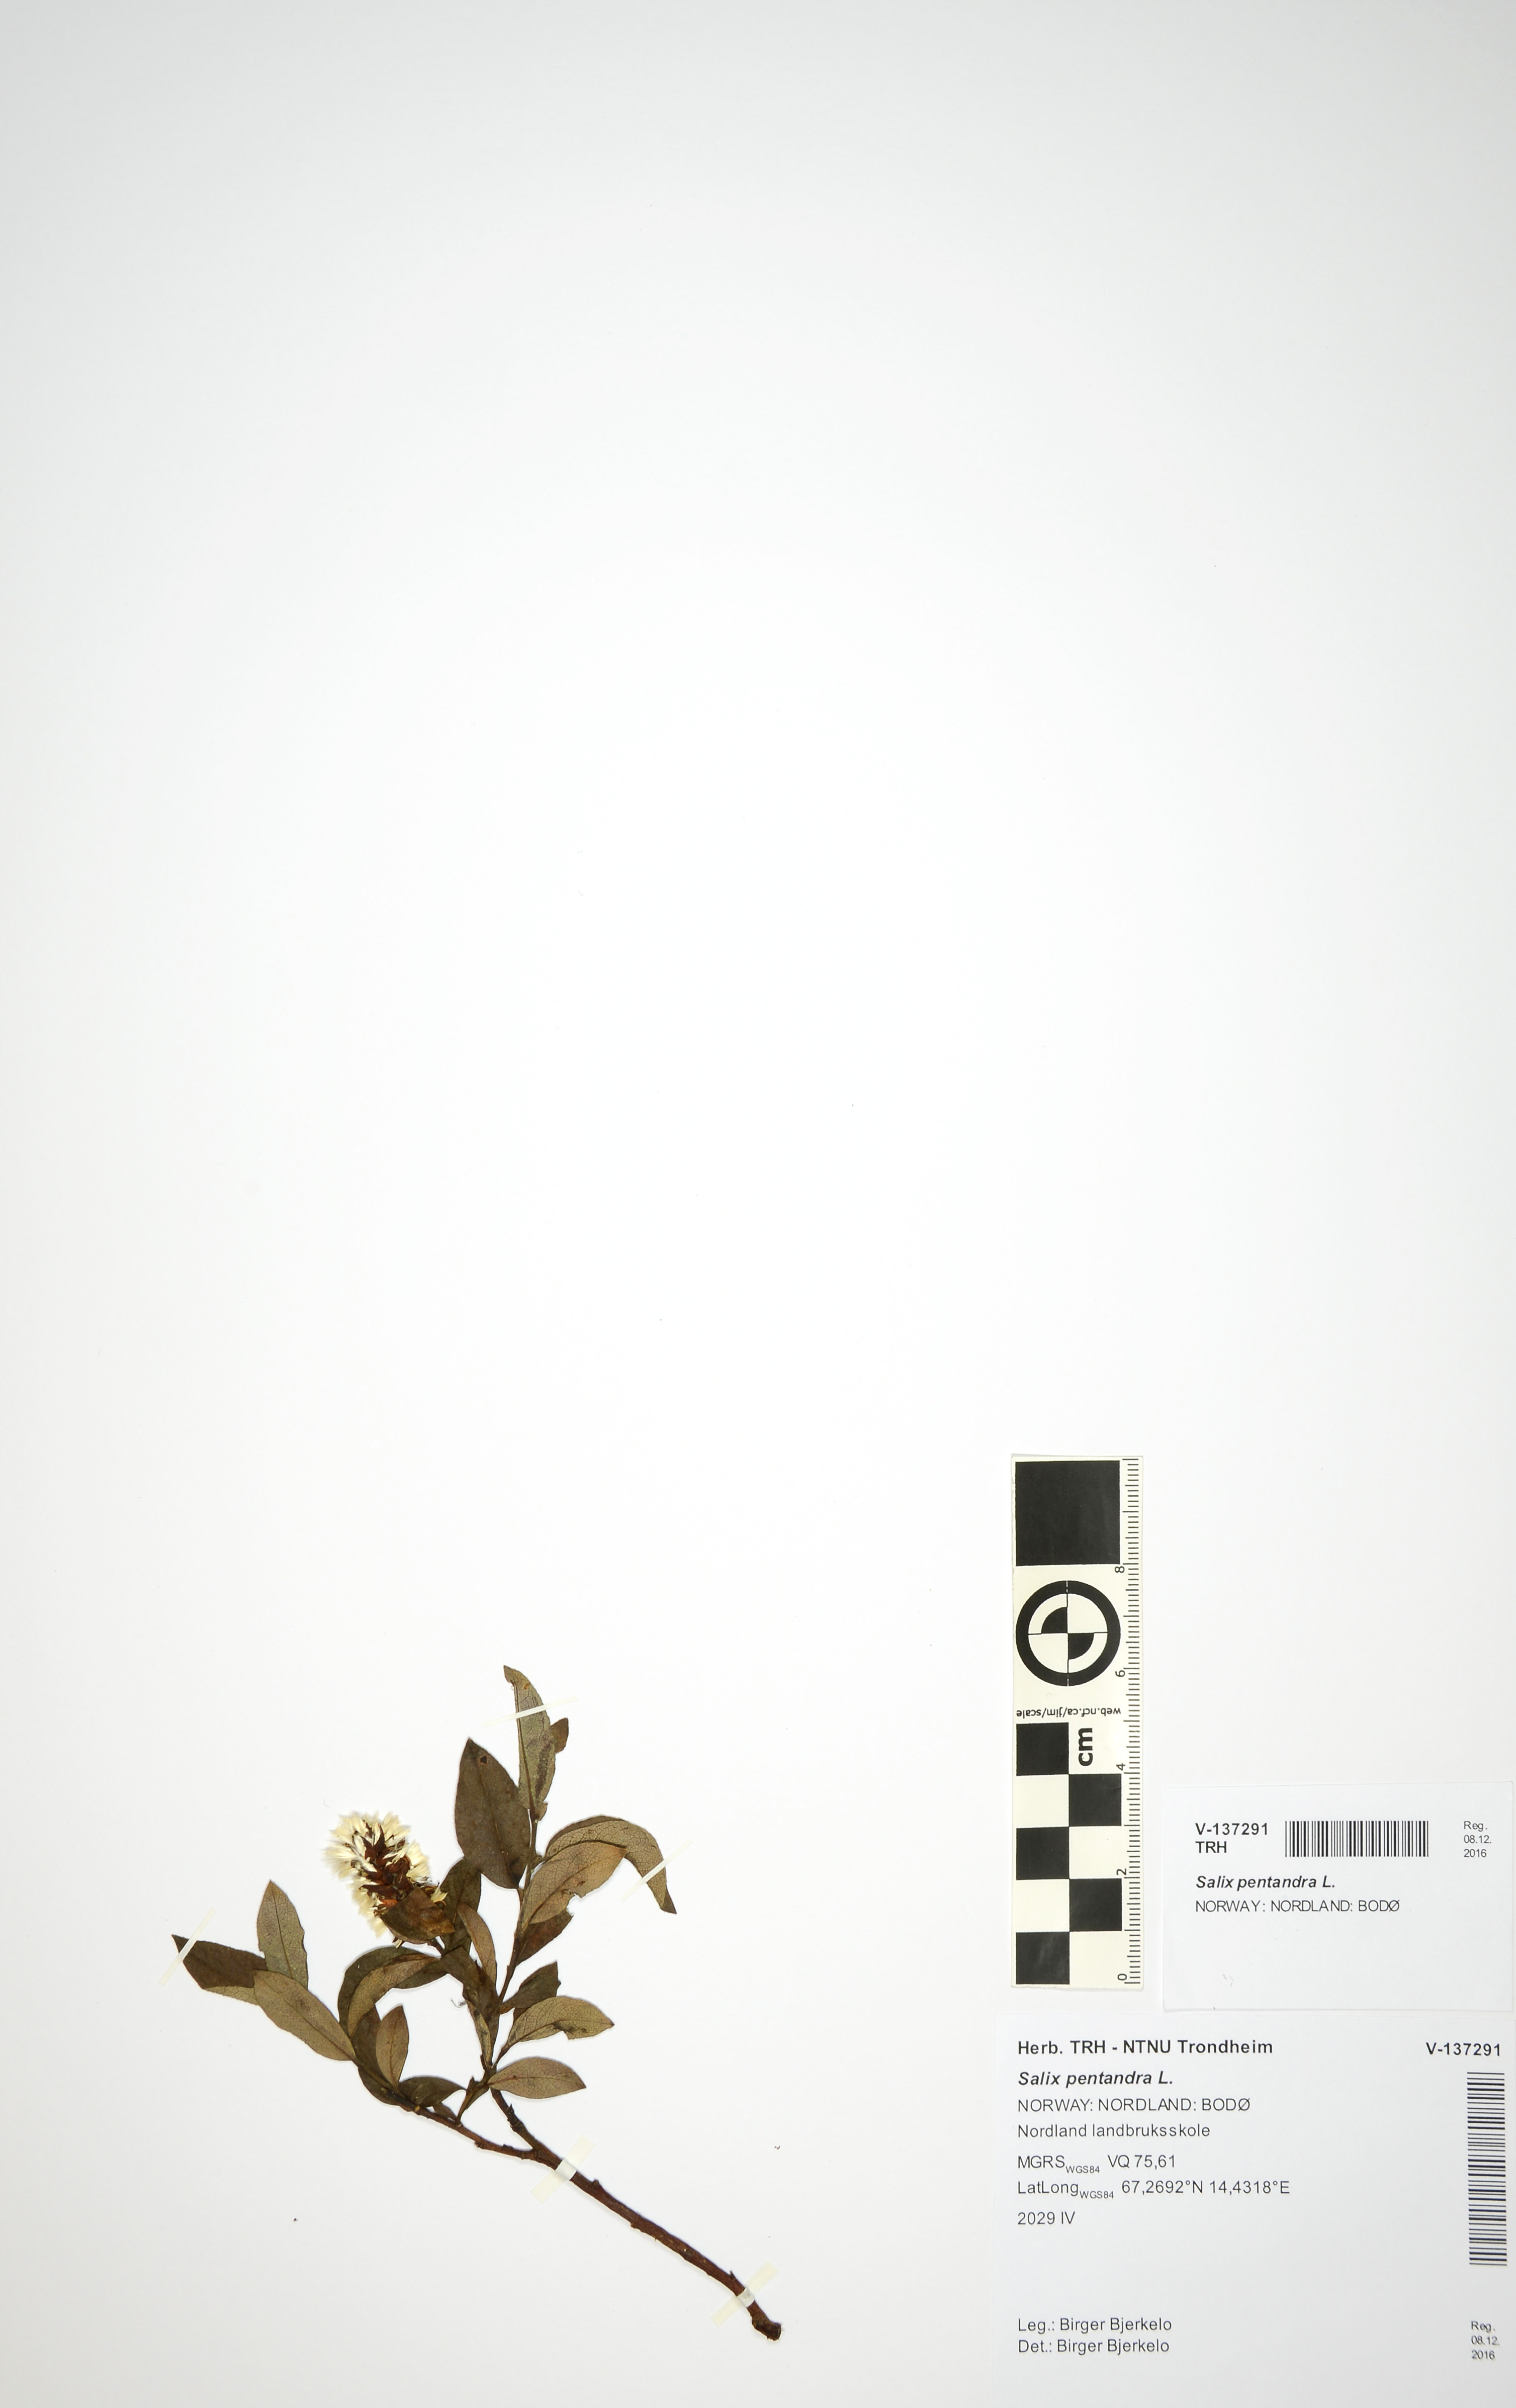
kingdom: Plantae
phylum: Tracheophyta
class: Magnoliopsida
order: Malpighiales
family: Salicaceae
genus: Salix
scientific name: Salix pentandra
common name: Bay willow
